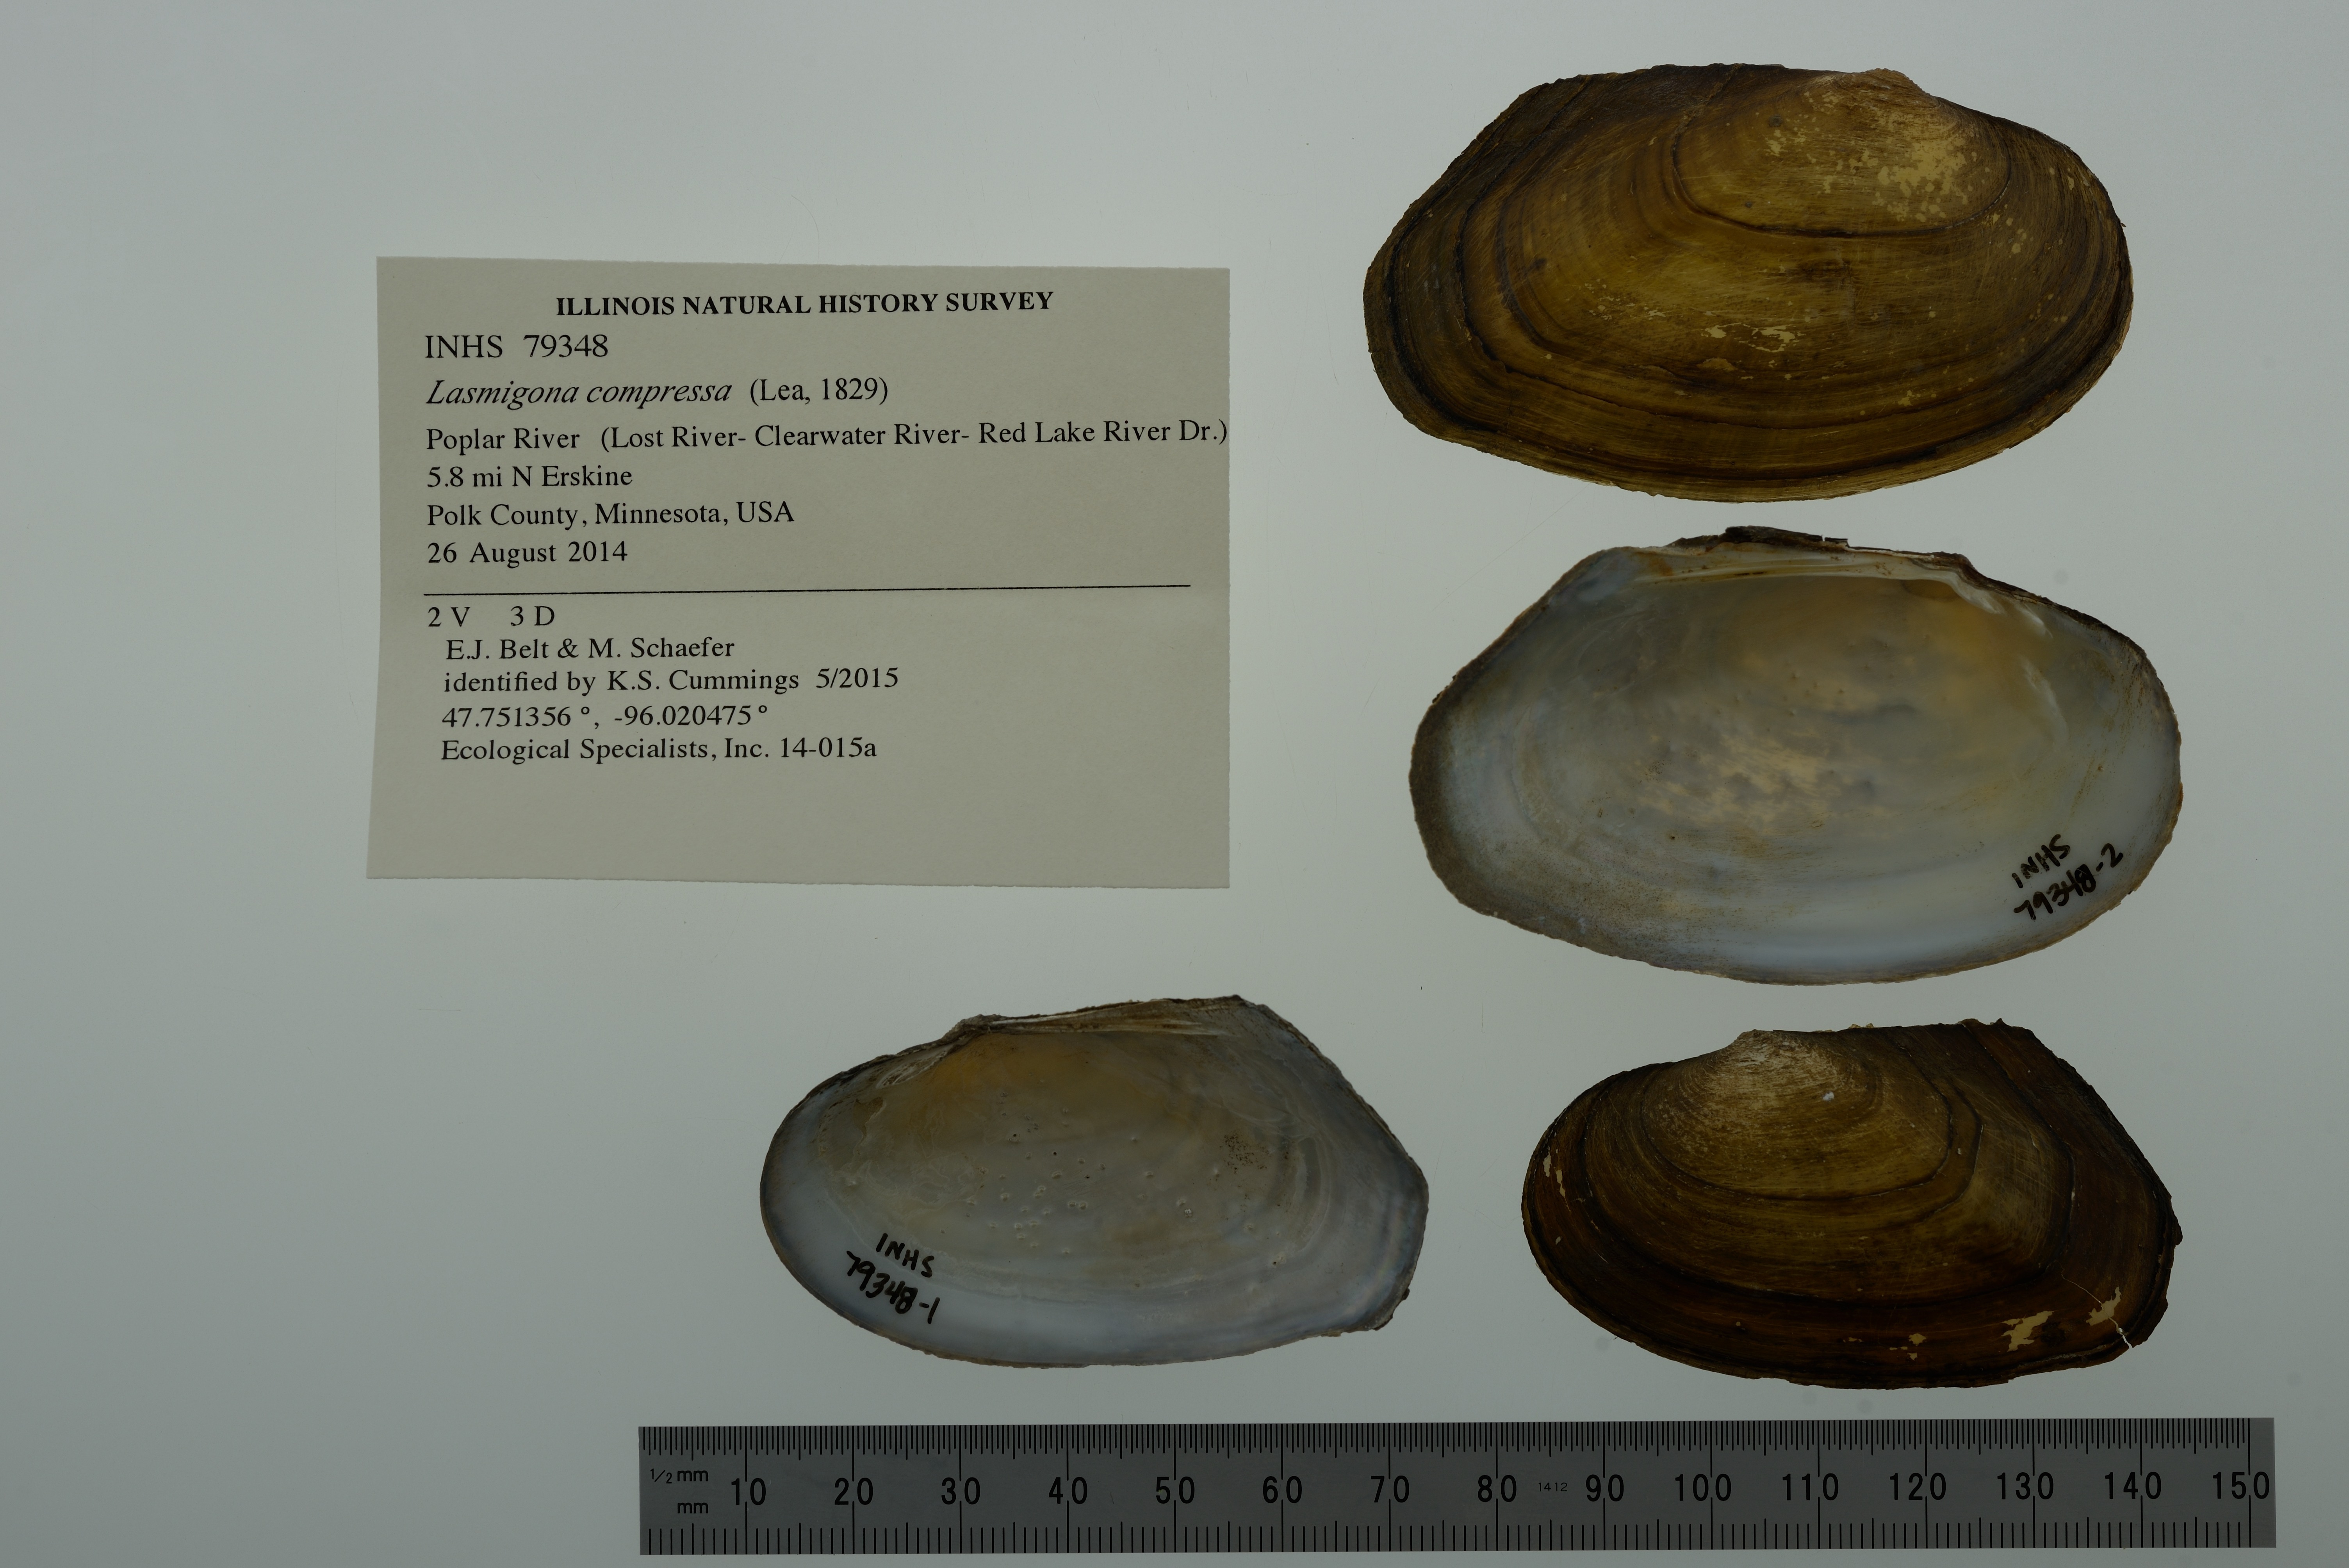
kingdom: Animalia
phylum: Mollusca
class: Bivalvia
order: Unionida
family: Unionidae
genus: Lasmigona
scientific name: Lasmigona compressa
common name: Creek heelsplitter
